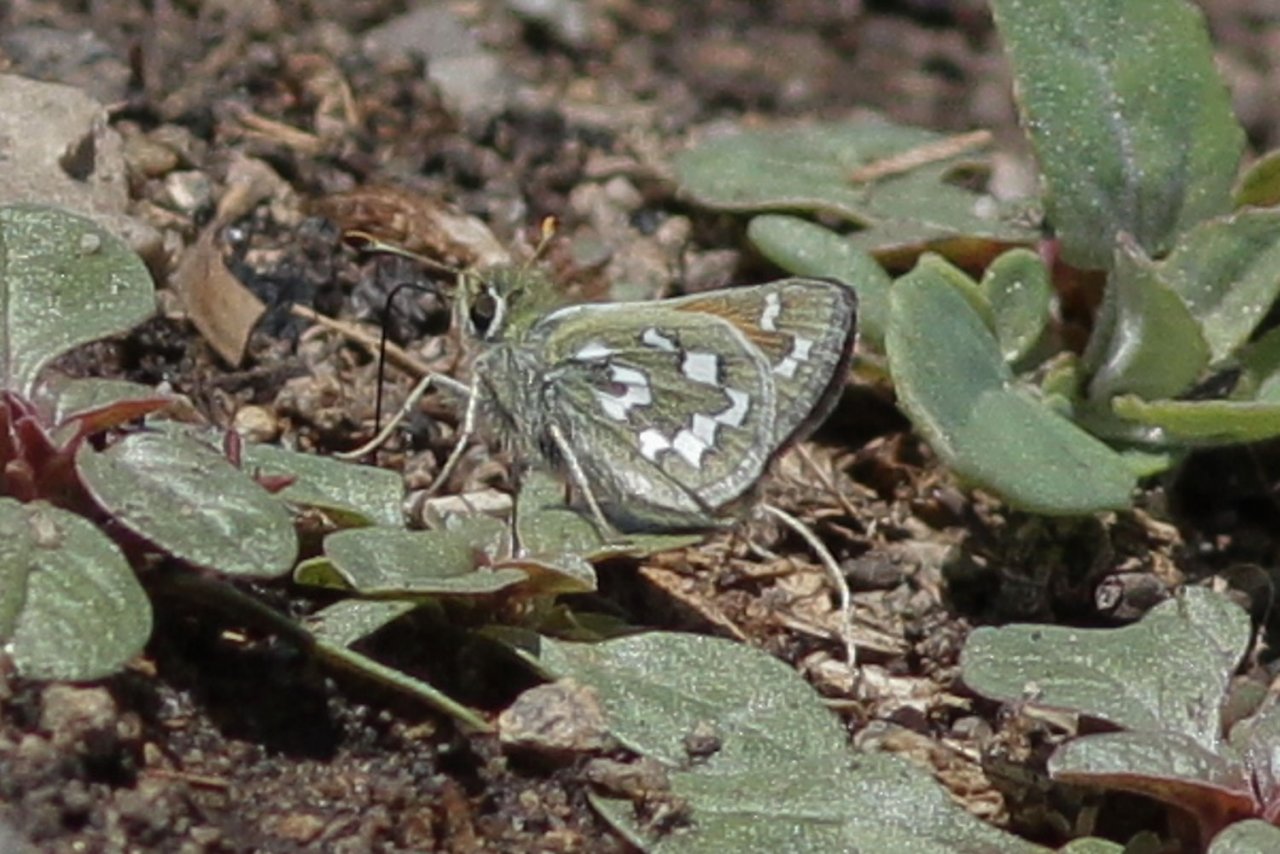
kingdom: Animalia
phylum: Arthropoda
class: Insecta
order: Lepidoptera
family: Hesperiidae
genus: Hesperia
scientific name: Hesperia nevada
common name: Nevada Skipper
